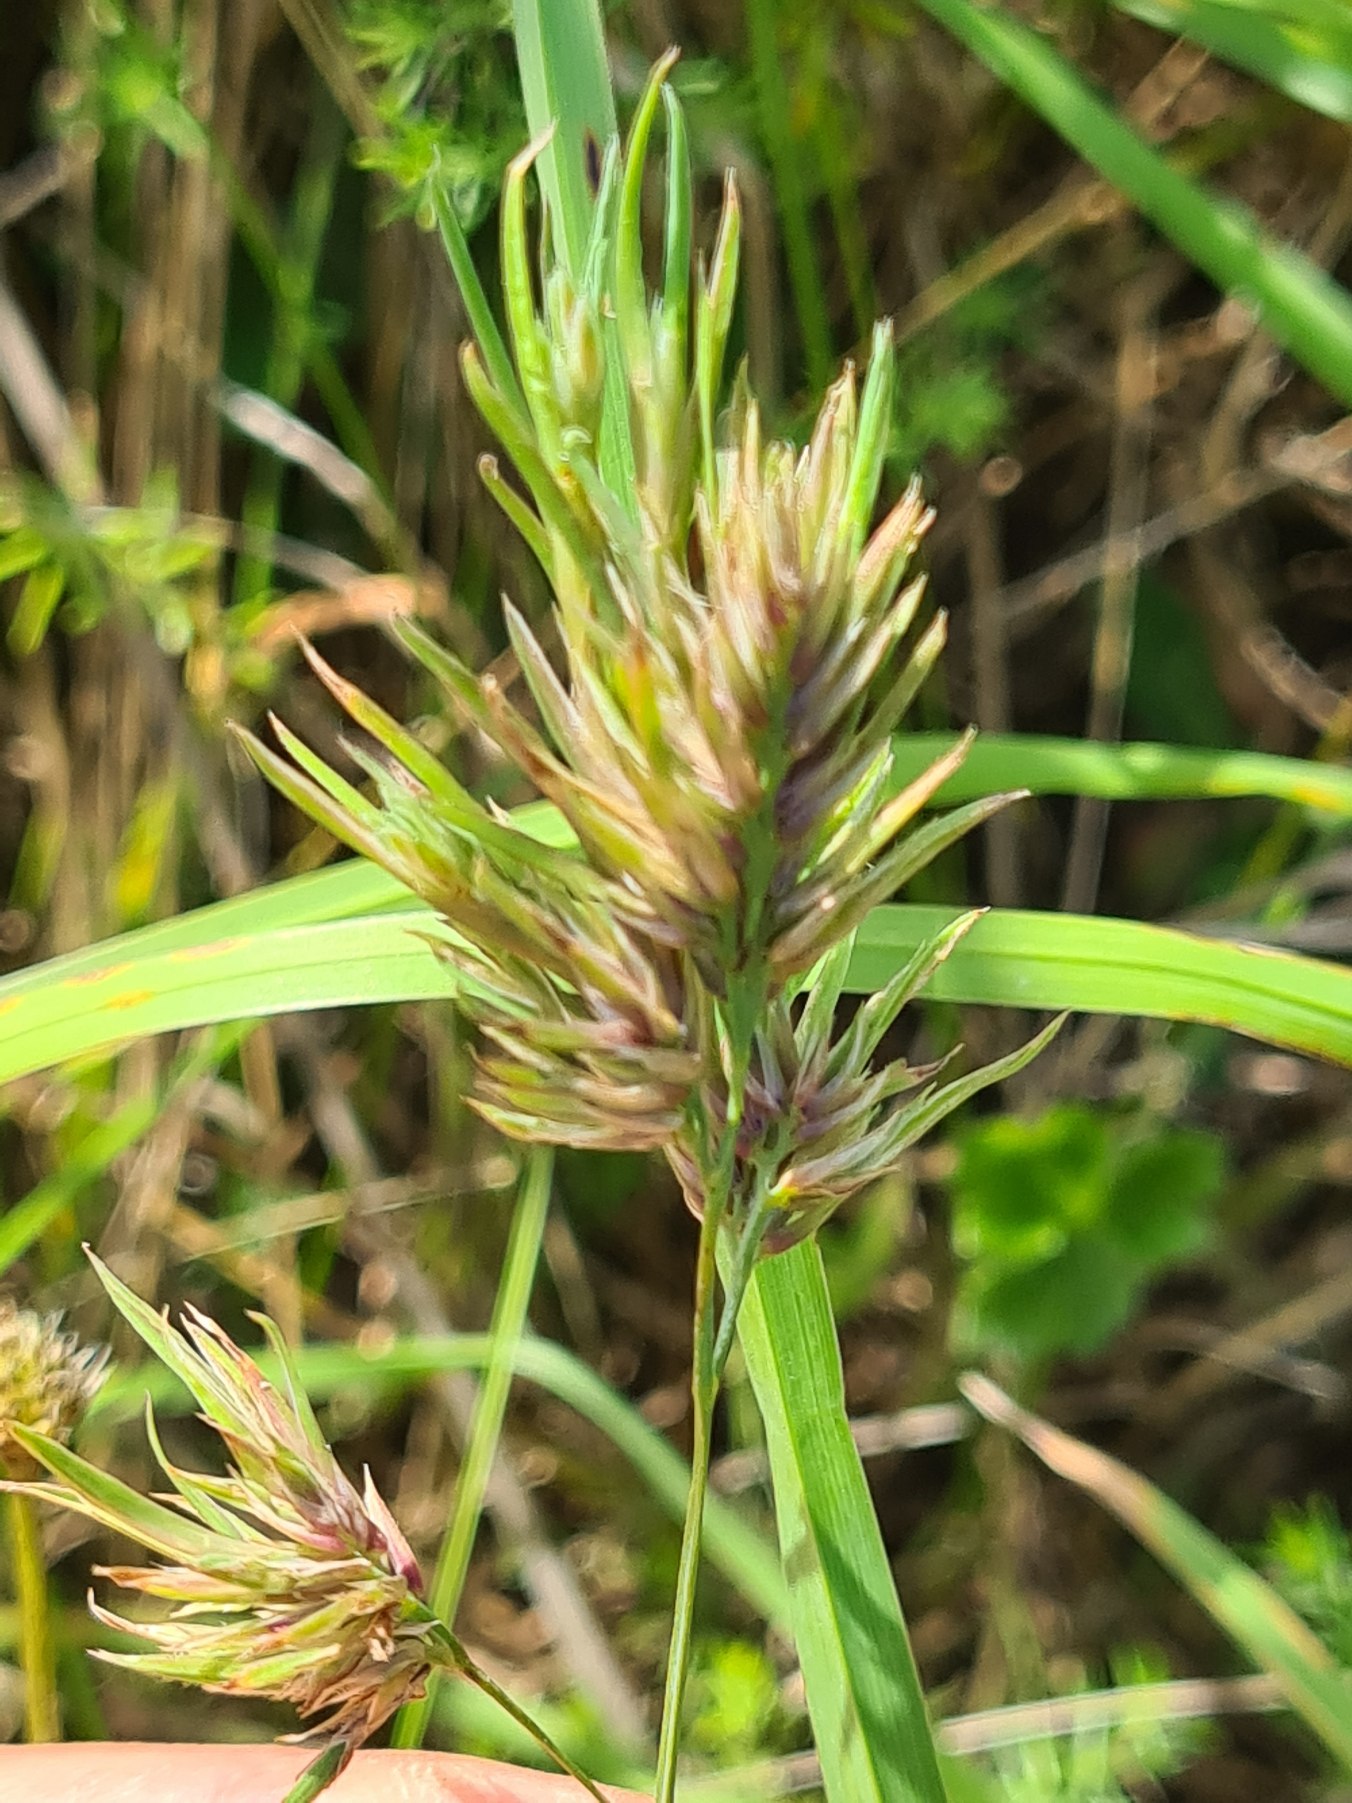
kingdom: Plantae
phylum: Tracheophyta
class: Liliopsida
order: Poales
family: Poaceae
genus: Dactylis
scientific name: Dactylis glomerata
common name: Almindelig hundegræs
